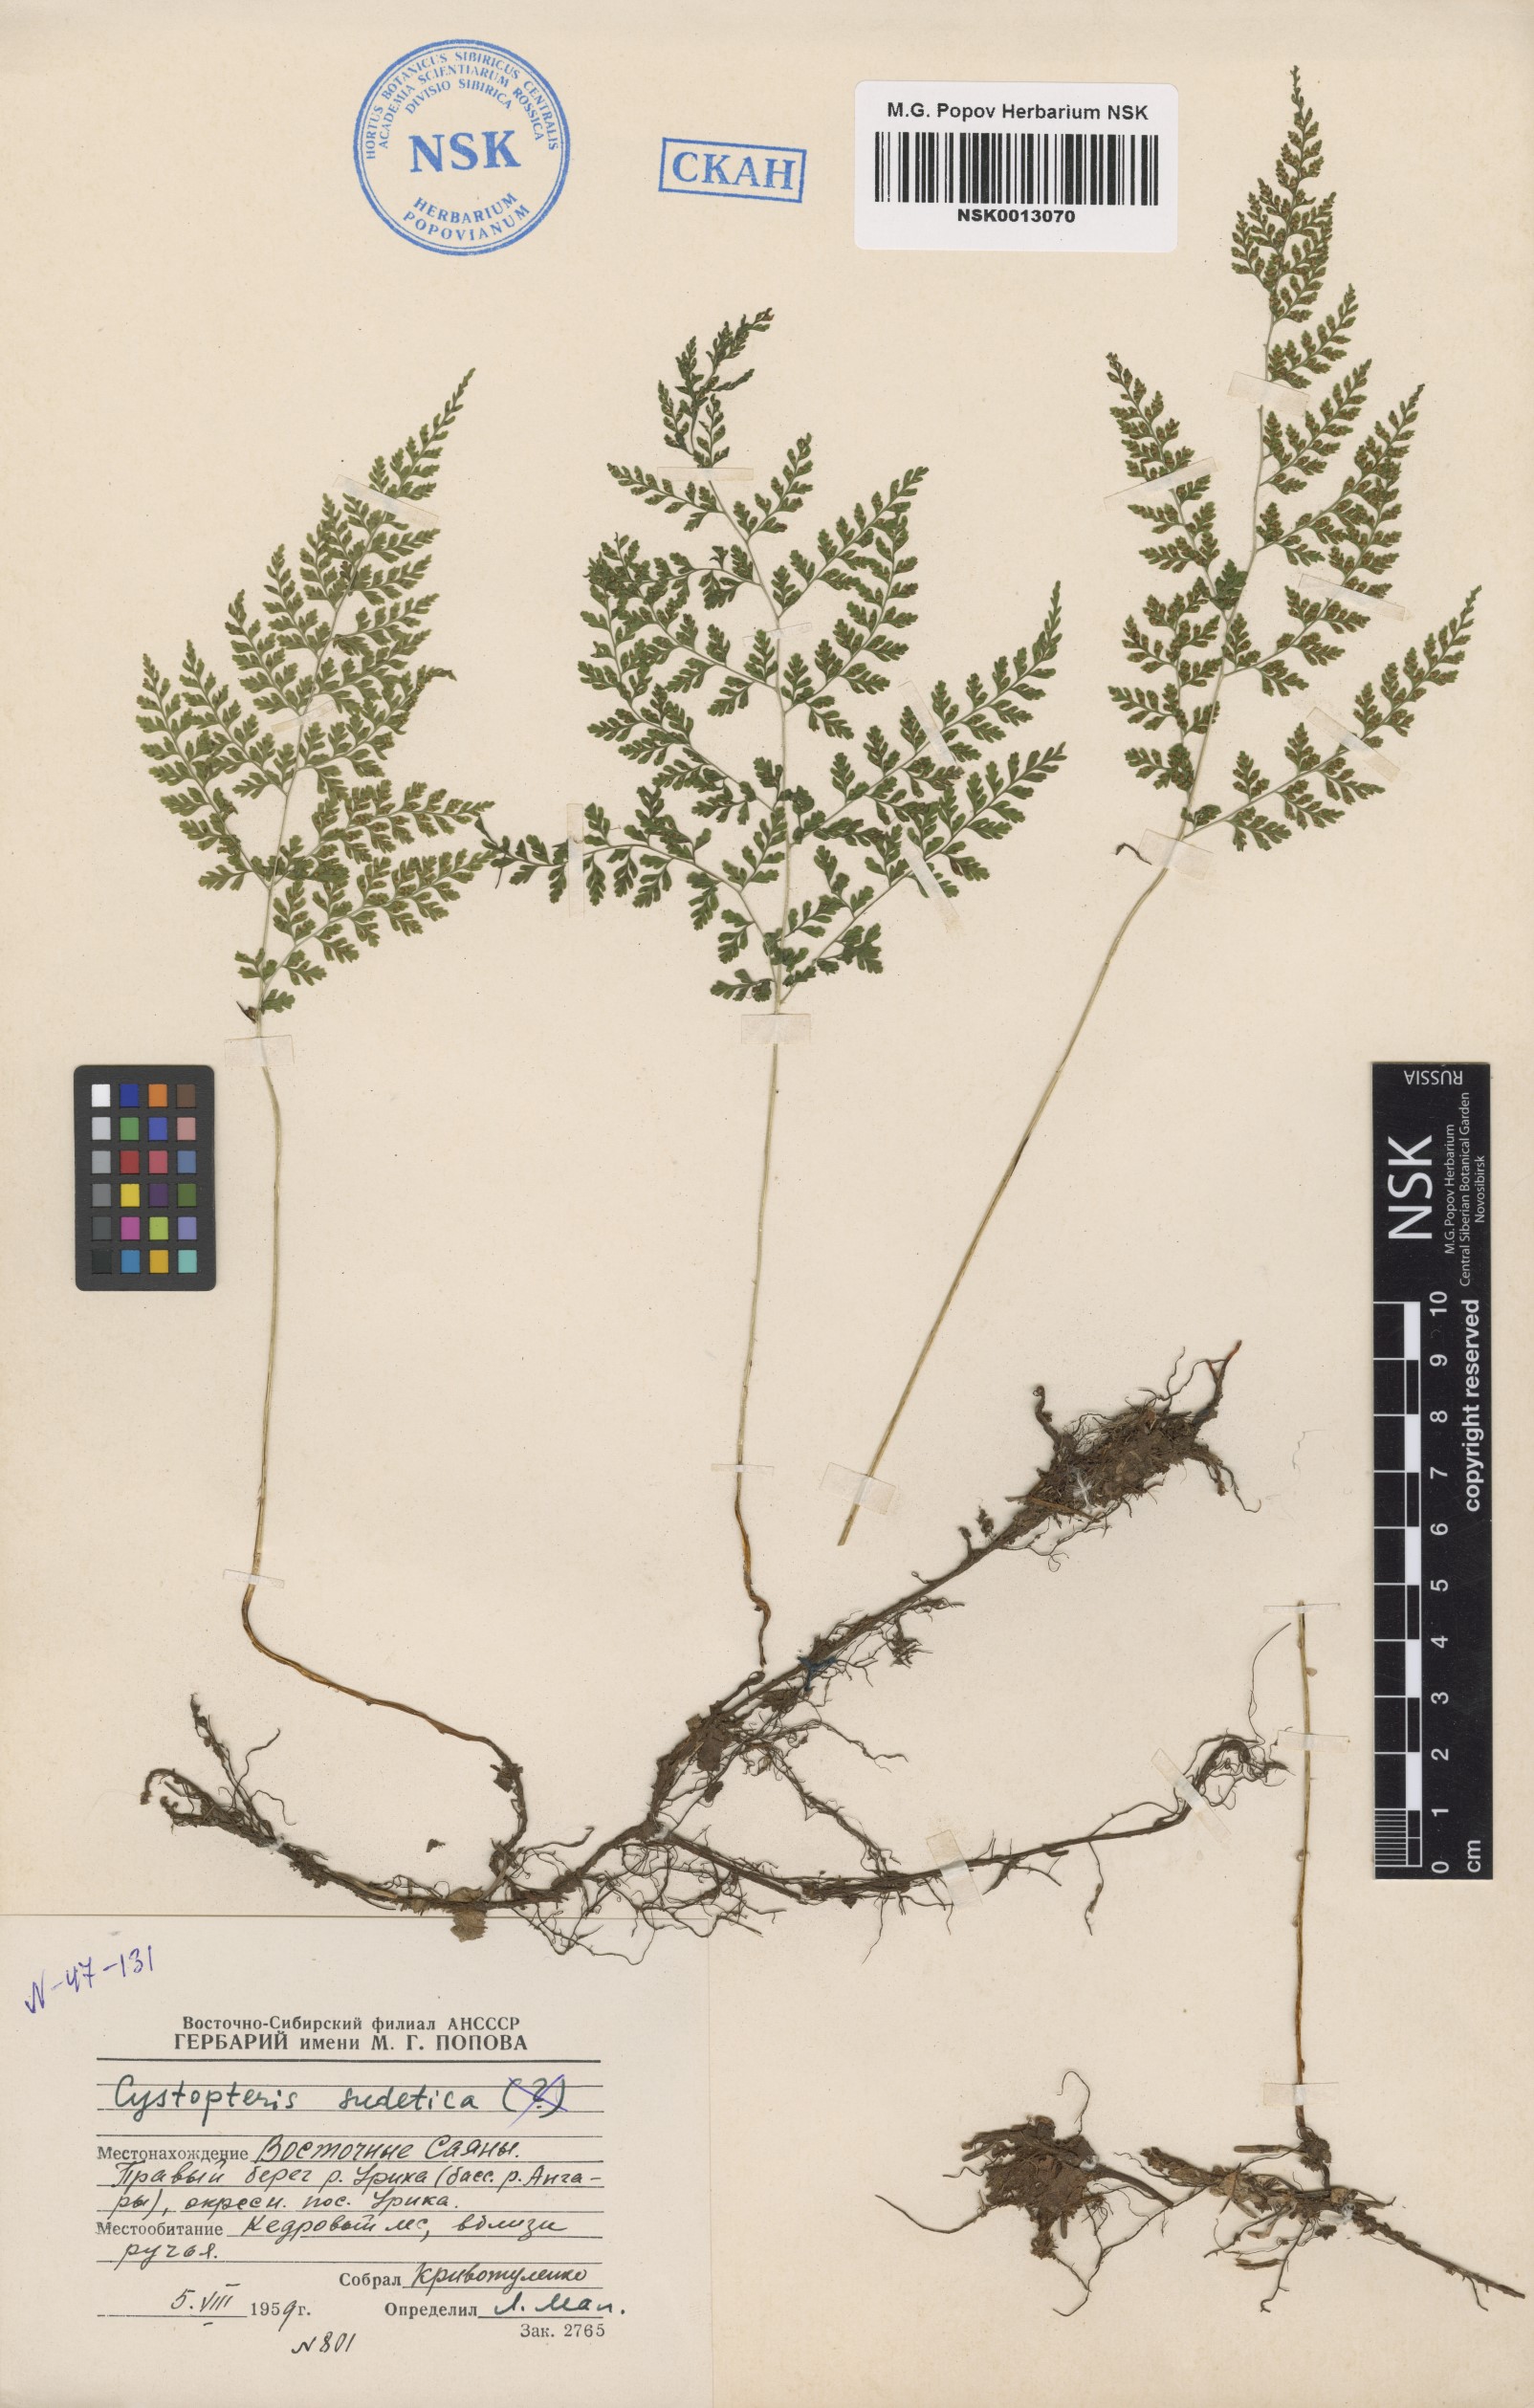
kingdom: Plantae
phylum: Tracheophyta
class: Polypodiopsida
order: Polypodiales
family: Cystopteridaceae
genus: Cystopteris
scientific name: Cystopteris sudetica
